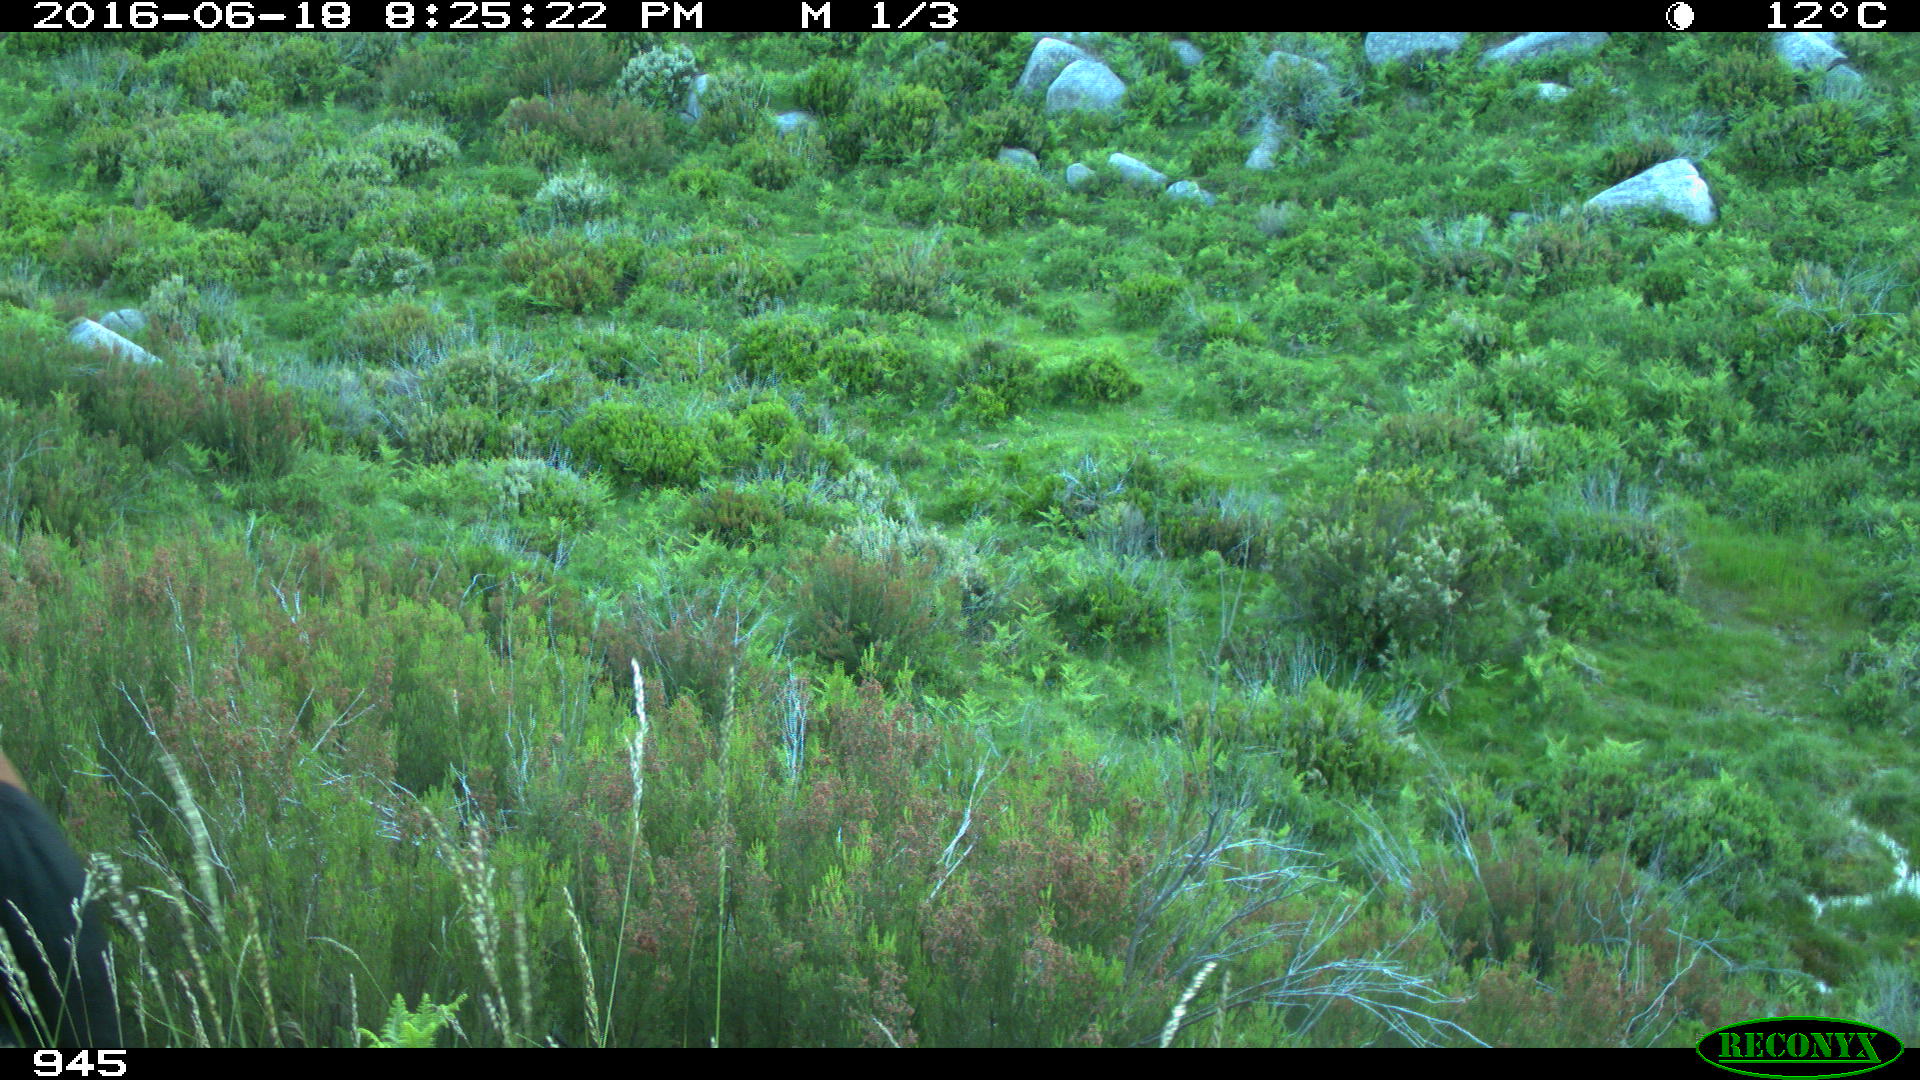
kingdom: Animalia
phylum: Chordata
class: Mammalia
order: Perissodactyla
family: Equidae
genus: Equus
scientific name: Equus caballus
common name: Horse
